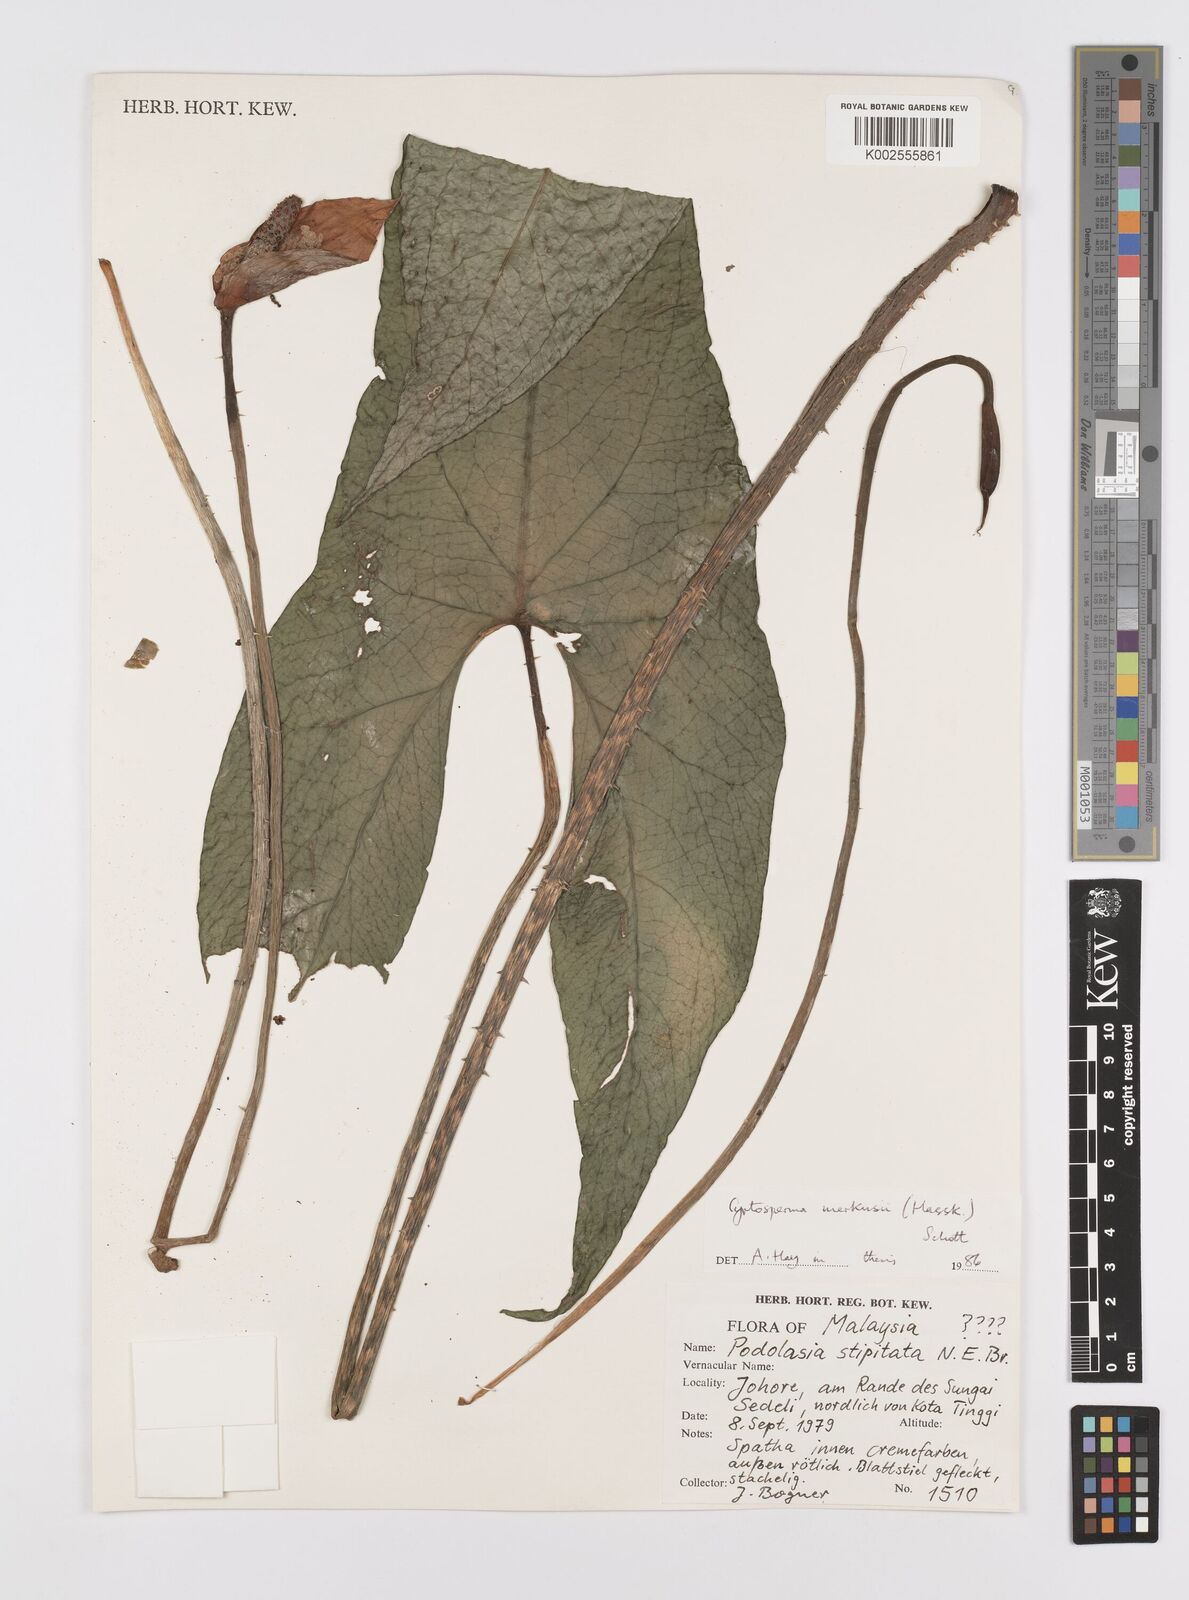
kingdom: Plantae
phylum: Tracheophyta
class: Liliopsida
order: Alismatales
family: Araceae
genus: Cyrtosperma
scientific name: Cyrtosperma merkusii
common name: Giant swamp-taro
